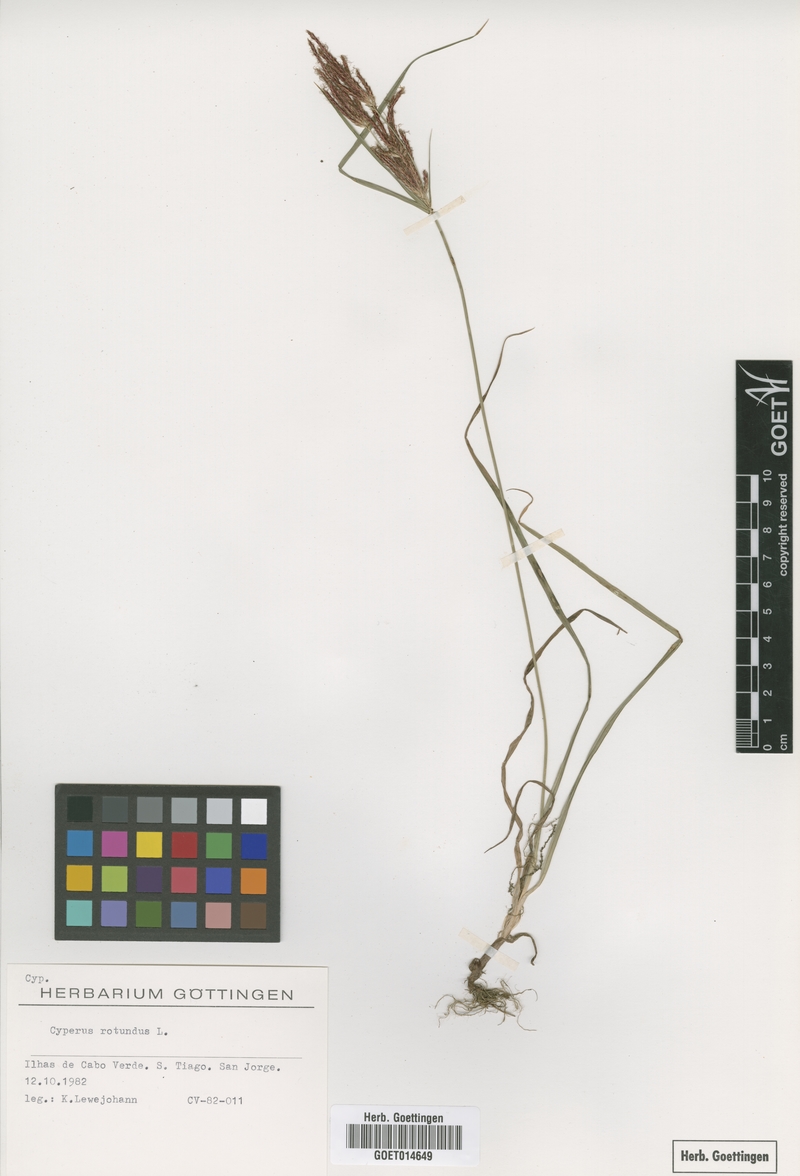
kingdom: Plantae
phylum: Tracheophyta
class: Liliopsida
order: Poales
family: Cyperaceae
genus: Cyperus
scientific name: Cyperus rotundus
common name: Nutgrass
